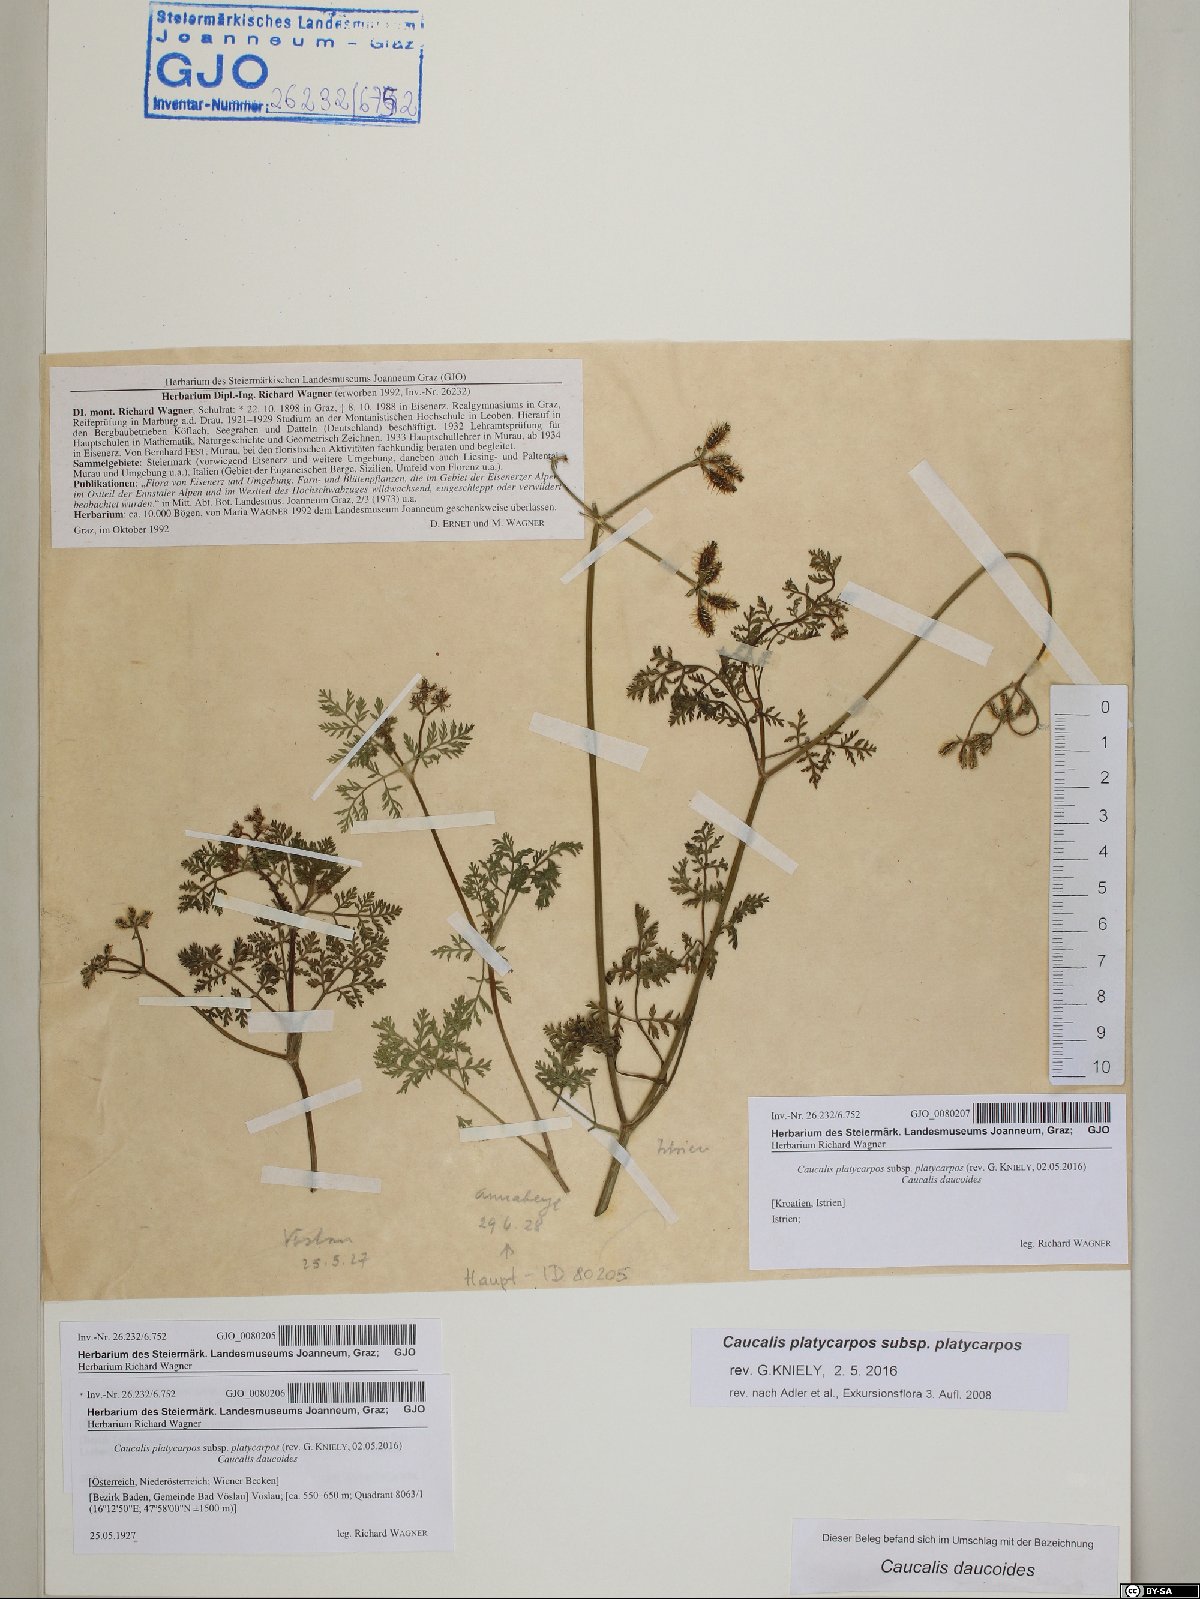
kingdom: Plantae
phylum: Tracheophyta
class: Magnoliopsida
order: Apiales
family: Apiaceae
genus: Caucalis
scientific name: Caucalis platycarpos
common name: Small bur-parsley
